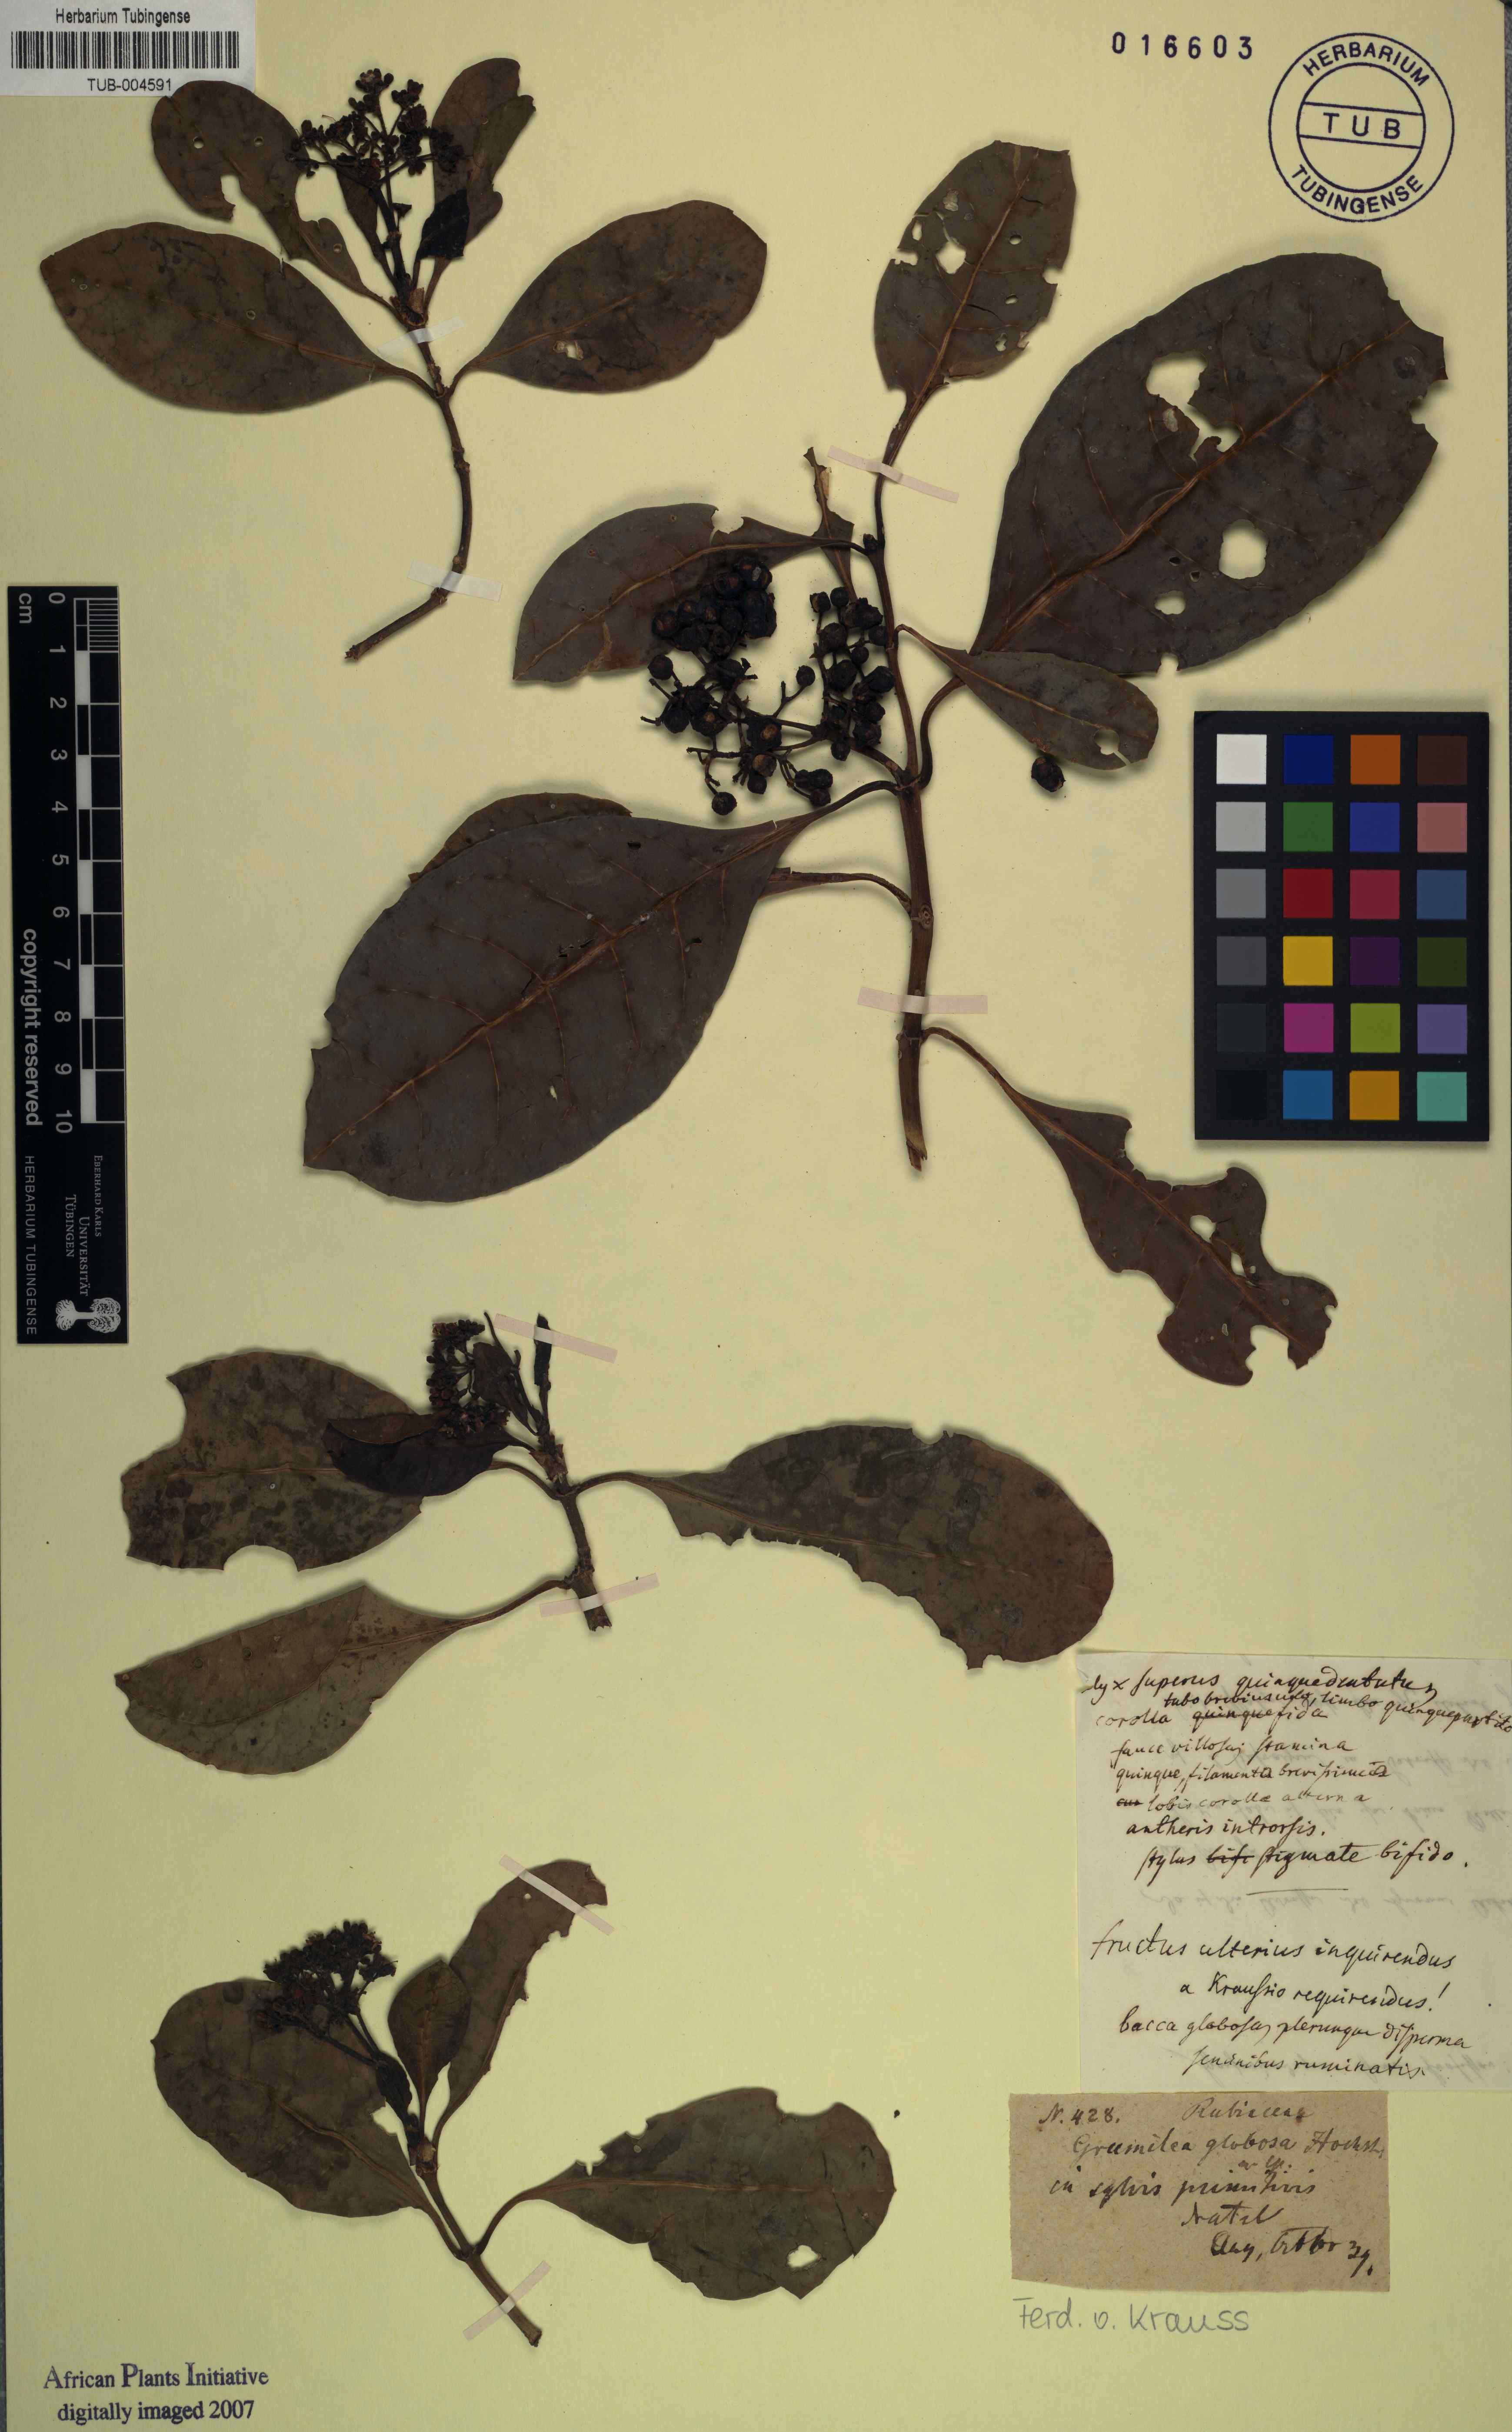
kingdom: Plantae
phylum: Tracheophyta
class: Magnoliopsida
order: Gentianales
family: Rubiaceae
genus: Psychotria
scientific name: Psychotria capensis
